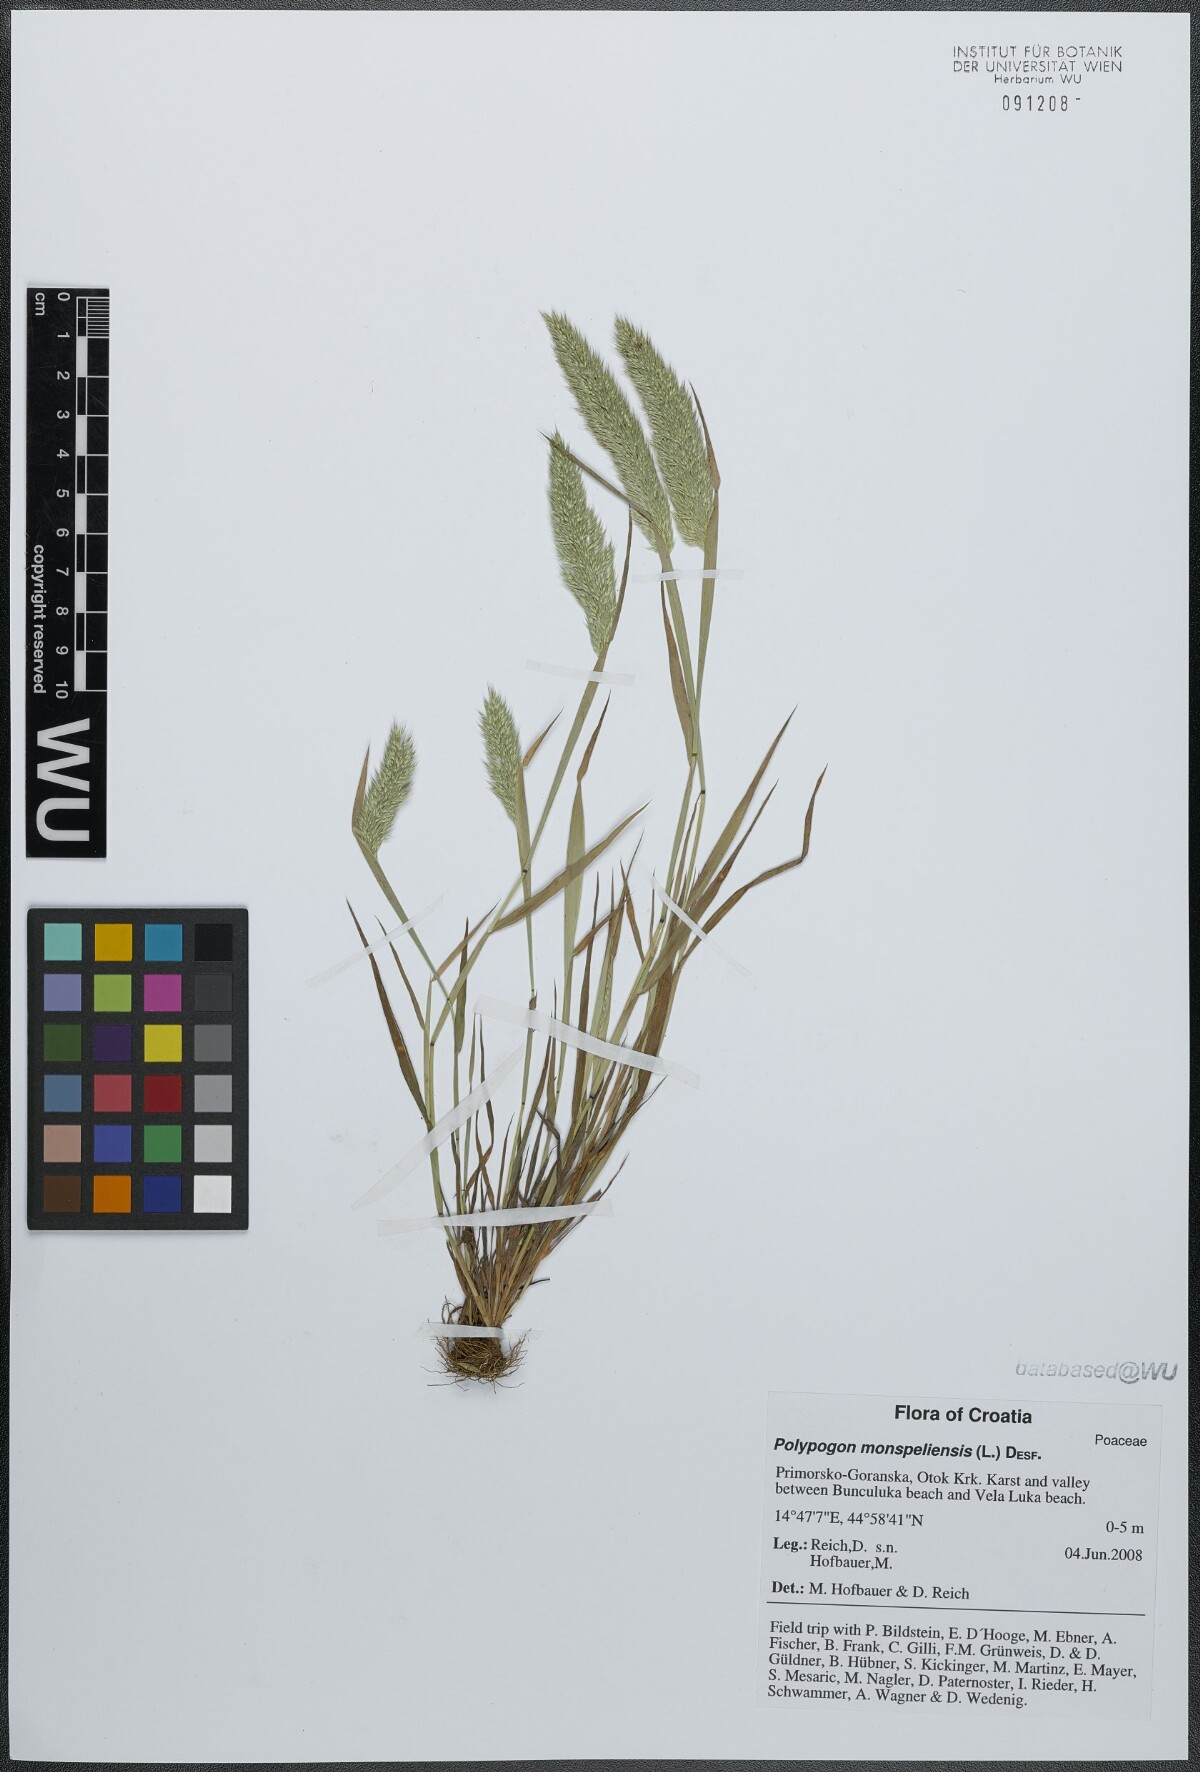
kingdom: Plantae
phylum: Tracheophyta
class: Liliopsida
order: Poales
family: Poaceae
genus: Polypogon
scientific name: Polypogon monspeliensis
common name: Annual rabbitsfoot grass
